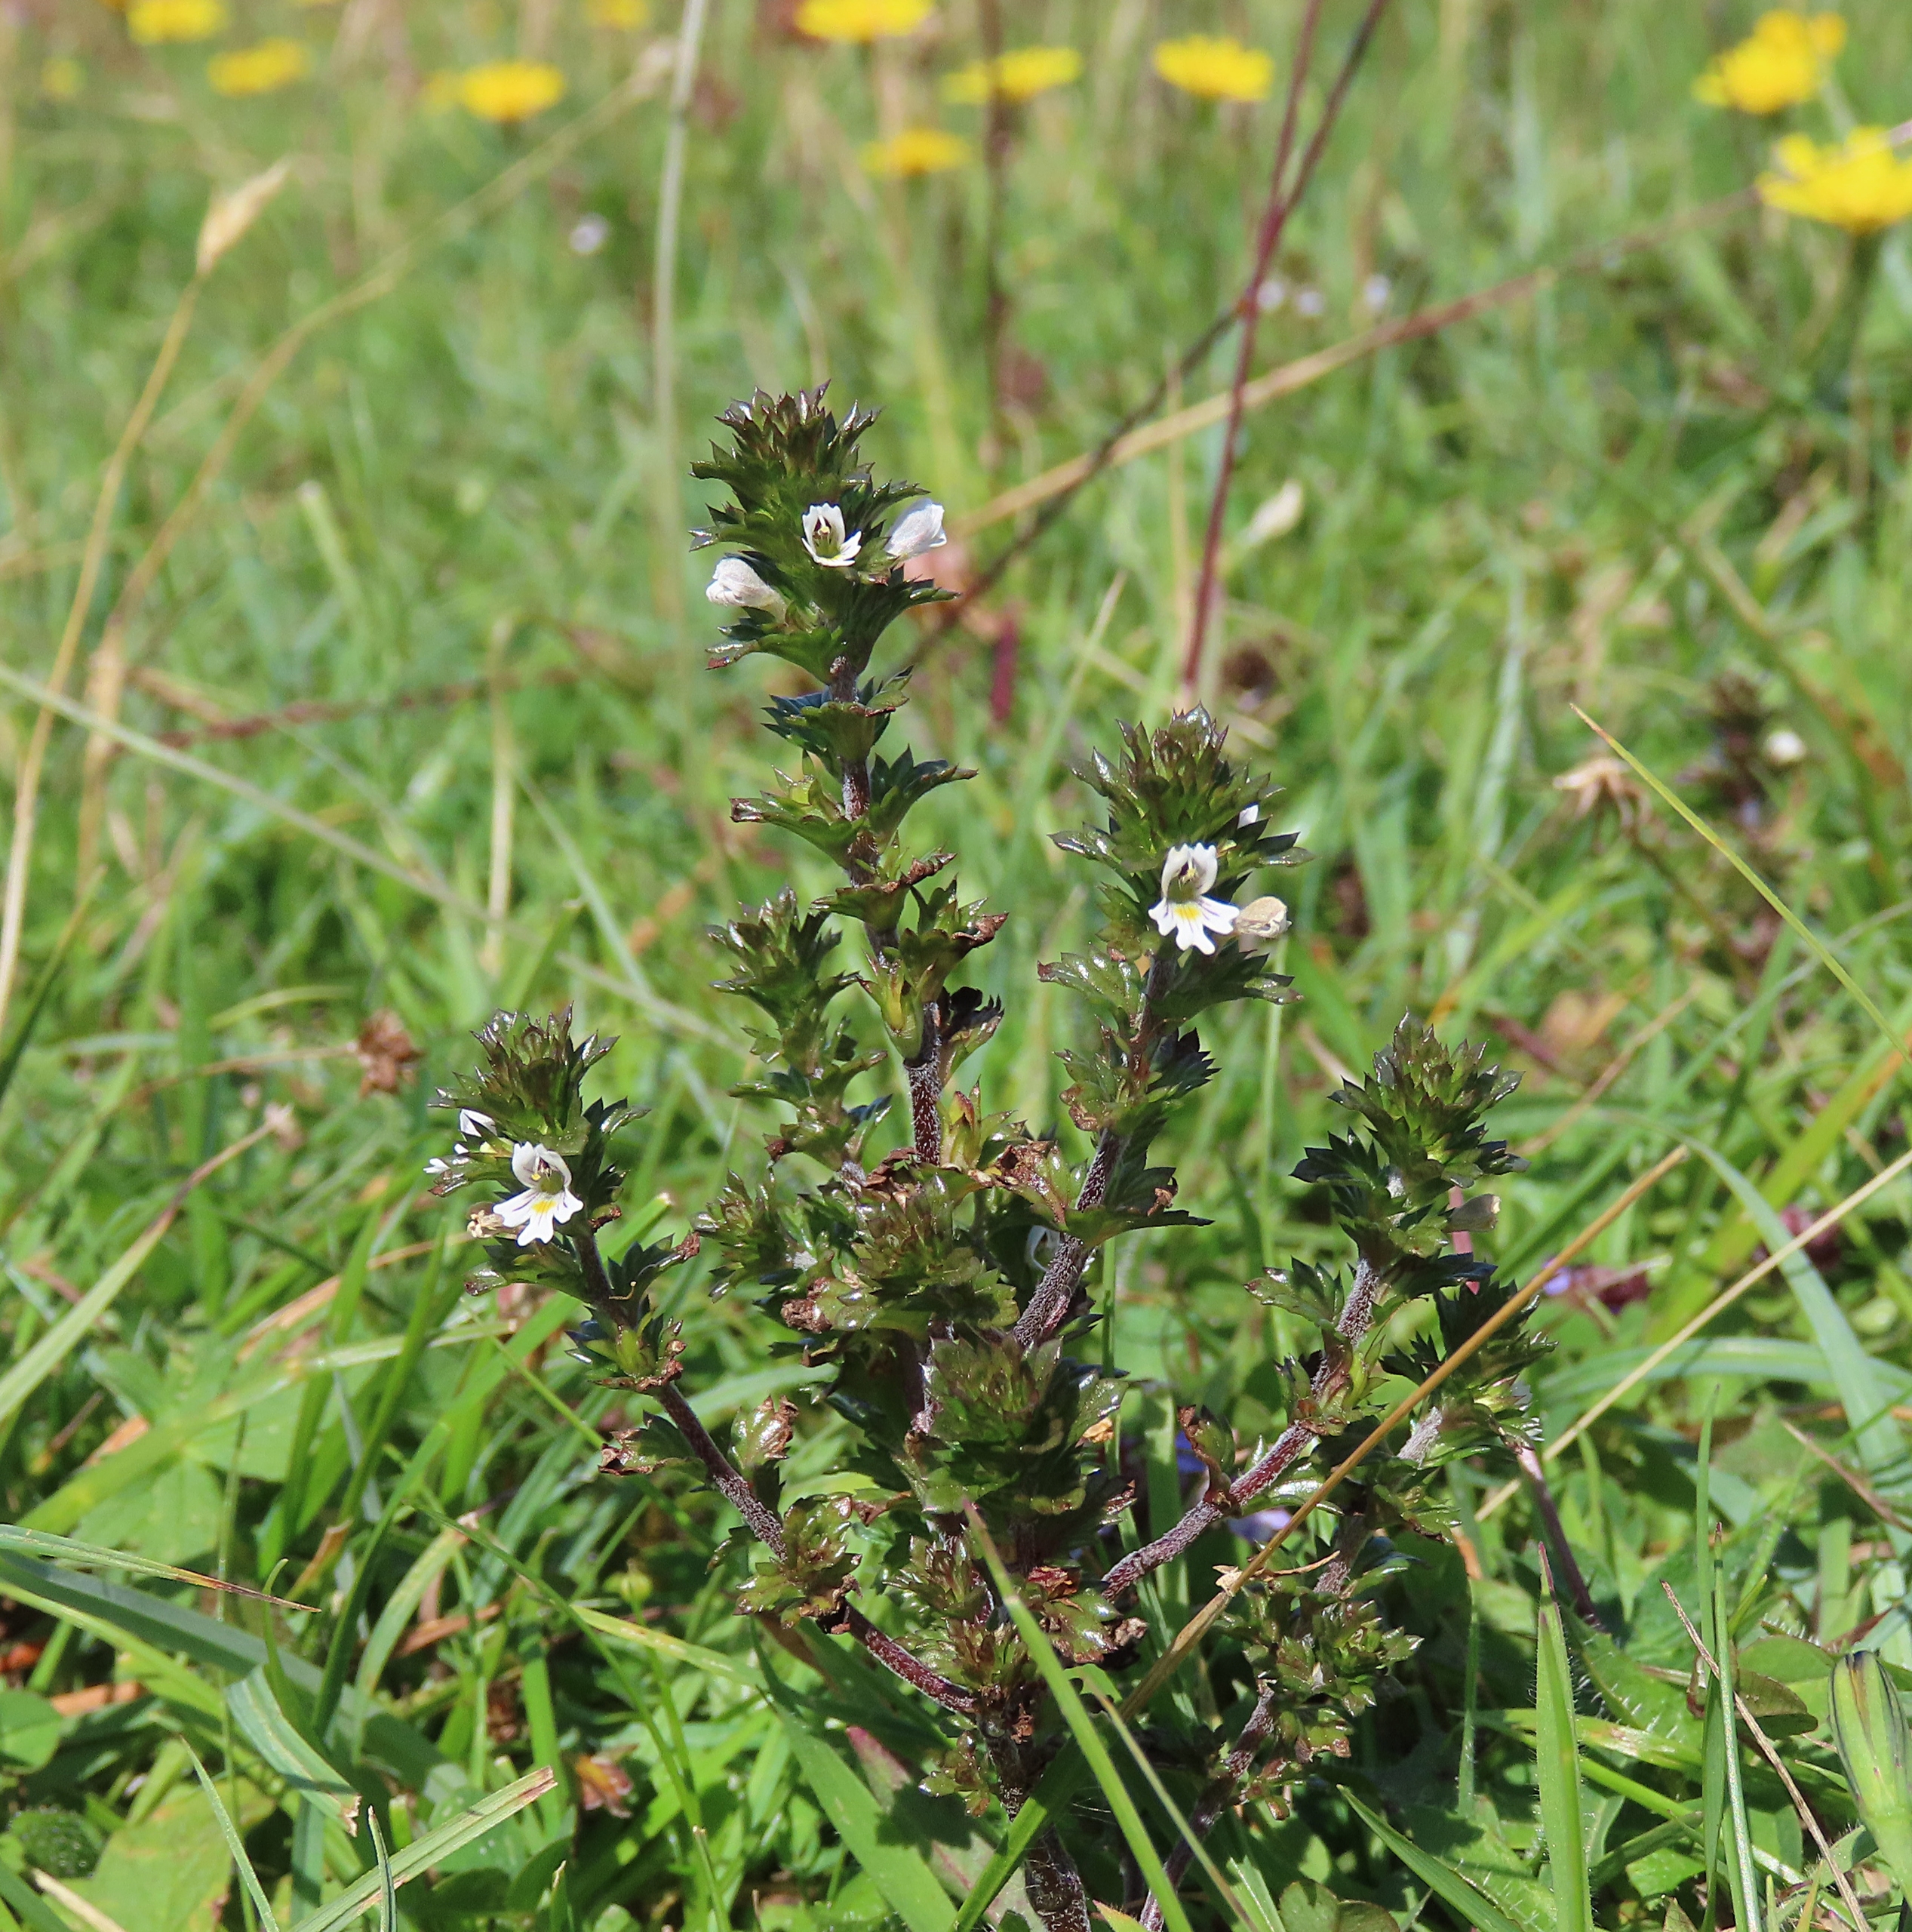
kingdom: Plantae
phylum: Tracheophyta
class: Magnoliopsida
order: Lamiales
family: Orobanchaceae
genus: Euphrasia
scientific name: Euphrasia stricta
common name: Spids øjentrøst
